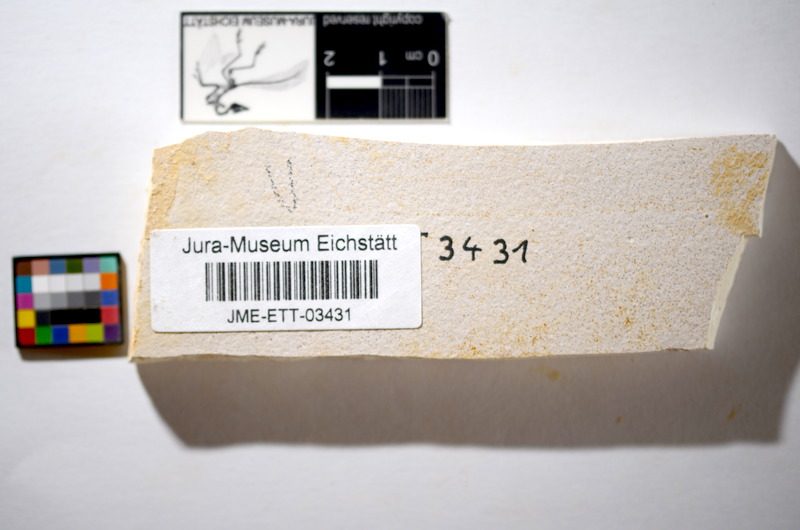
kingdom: Animalia
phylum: Chordata
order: Salmoniformes
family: Orthogonikleithridae
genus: Orthogonikleithrus
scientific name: Orthogonikleithrus hoelli
